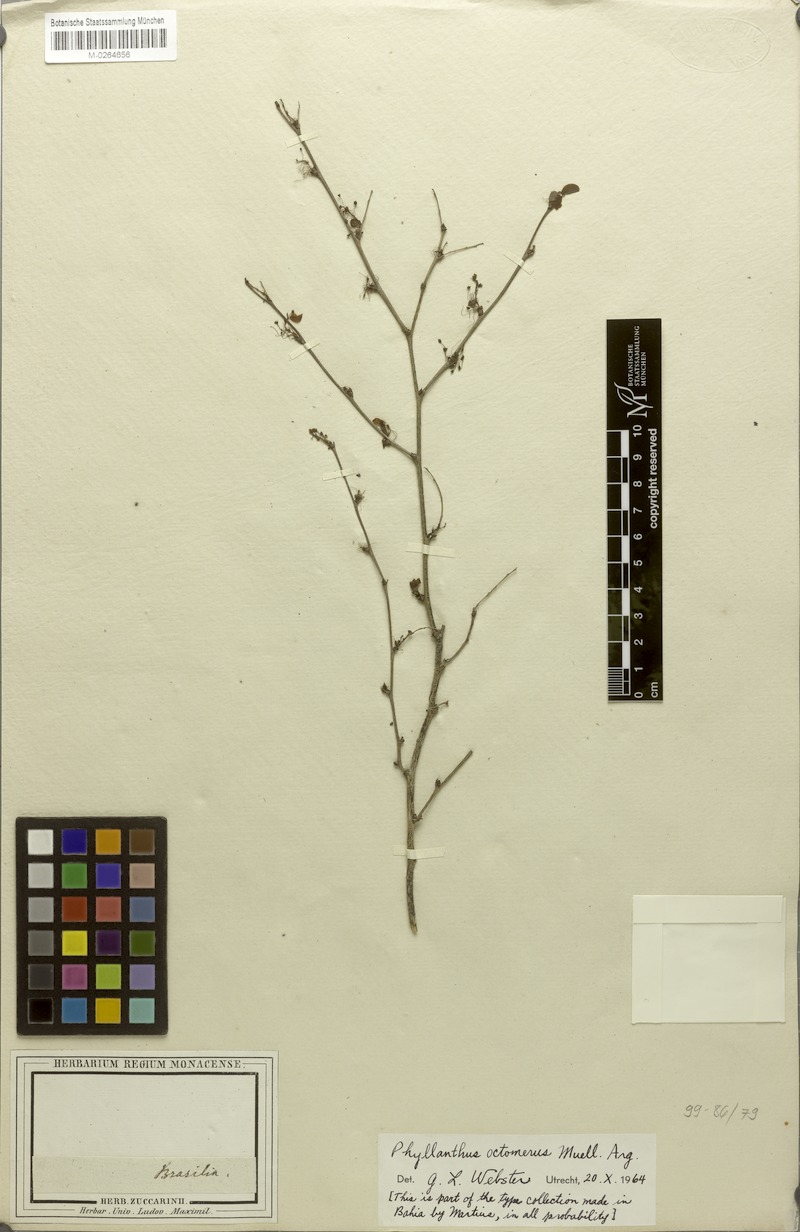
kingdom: Plantae
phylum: Tracheophyta
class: Magnoliopsida
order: Malpighiales
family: Phyllanthaceae
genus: Phyllanthus
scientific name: Phyllanthus octomerus
